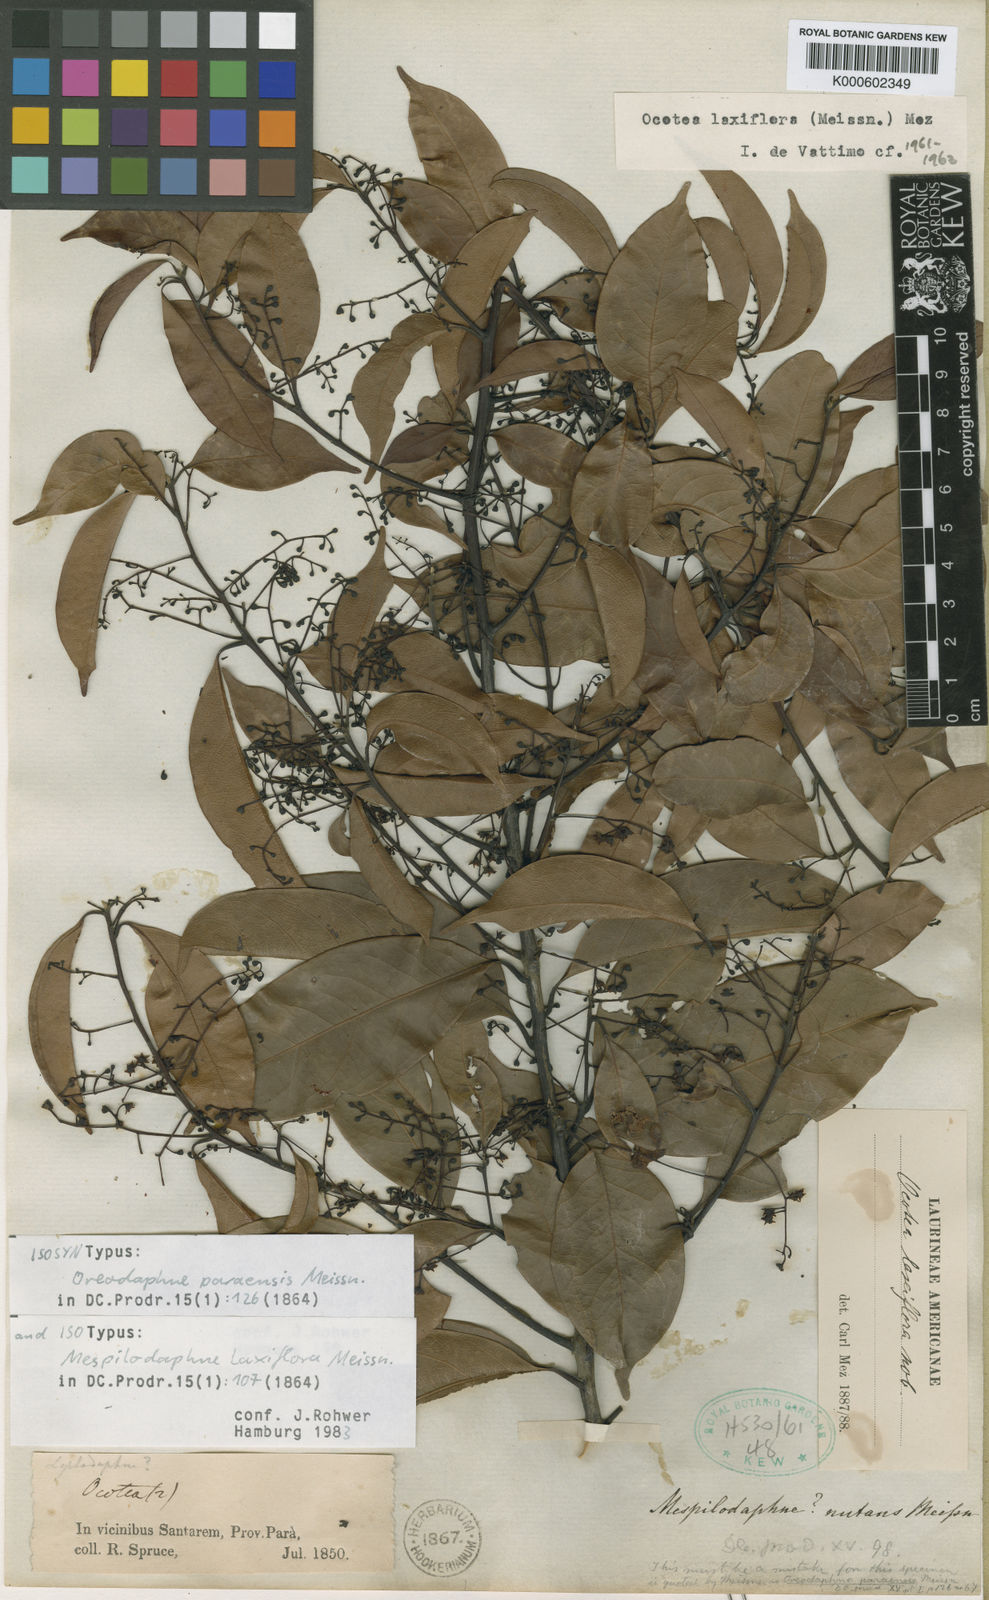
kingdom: Plantae
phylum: Tracheophyta
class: Magnoliopsida
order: Laurales
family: Lauraceae
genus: Ocotea
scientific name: Ocotea pauciflora
